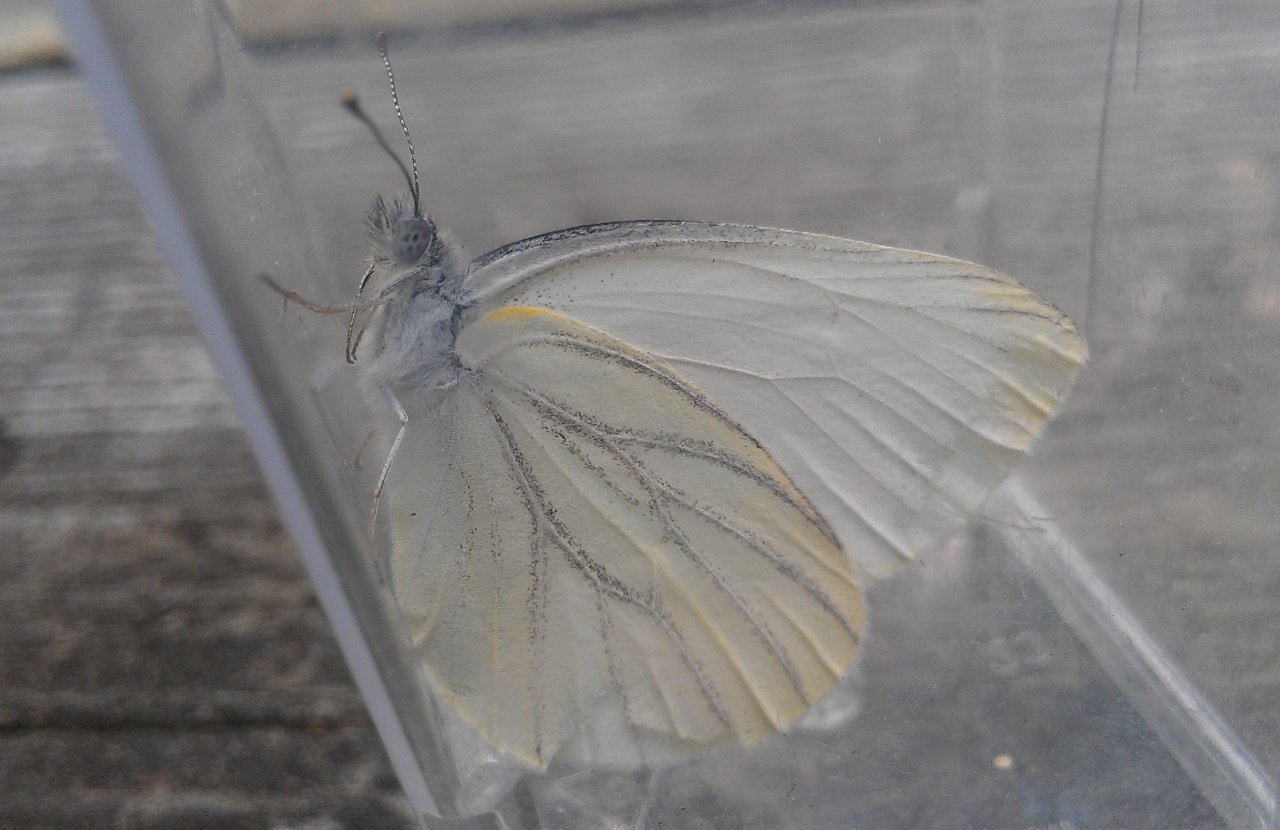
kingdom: Animalia
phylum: Arthropoda
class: Insecta
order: Lepidoptera
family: Pieridae
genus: Pieris
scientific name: Pieris oleracea
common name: Mustard White
